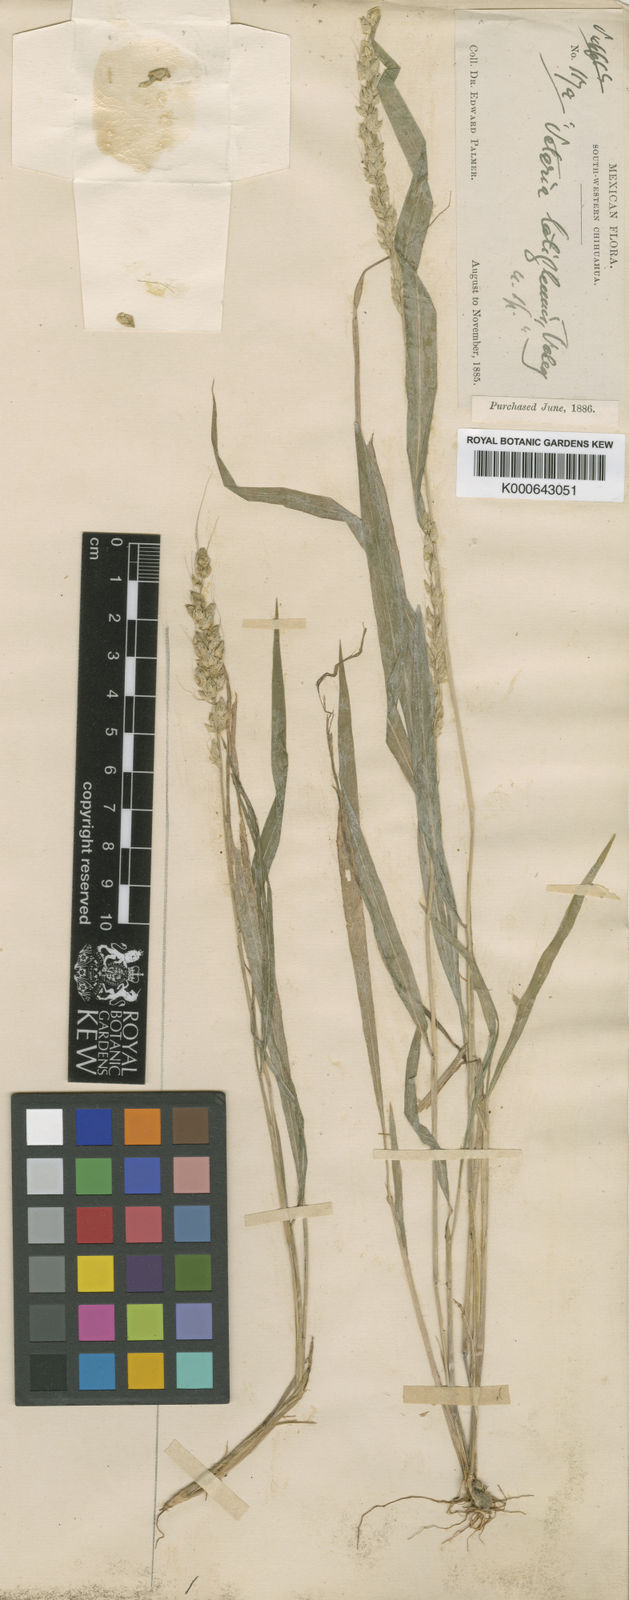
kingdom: Plantae
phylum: Tracheophyta
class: Liliopsida
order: Poales
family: Poaceae
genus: Setariopsis
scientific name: Setariopsis latiglumis
